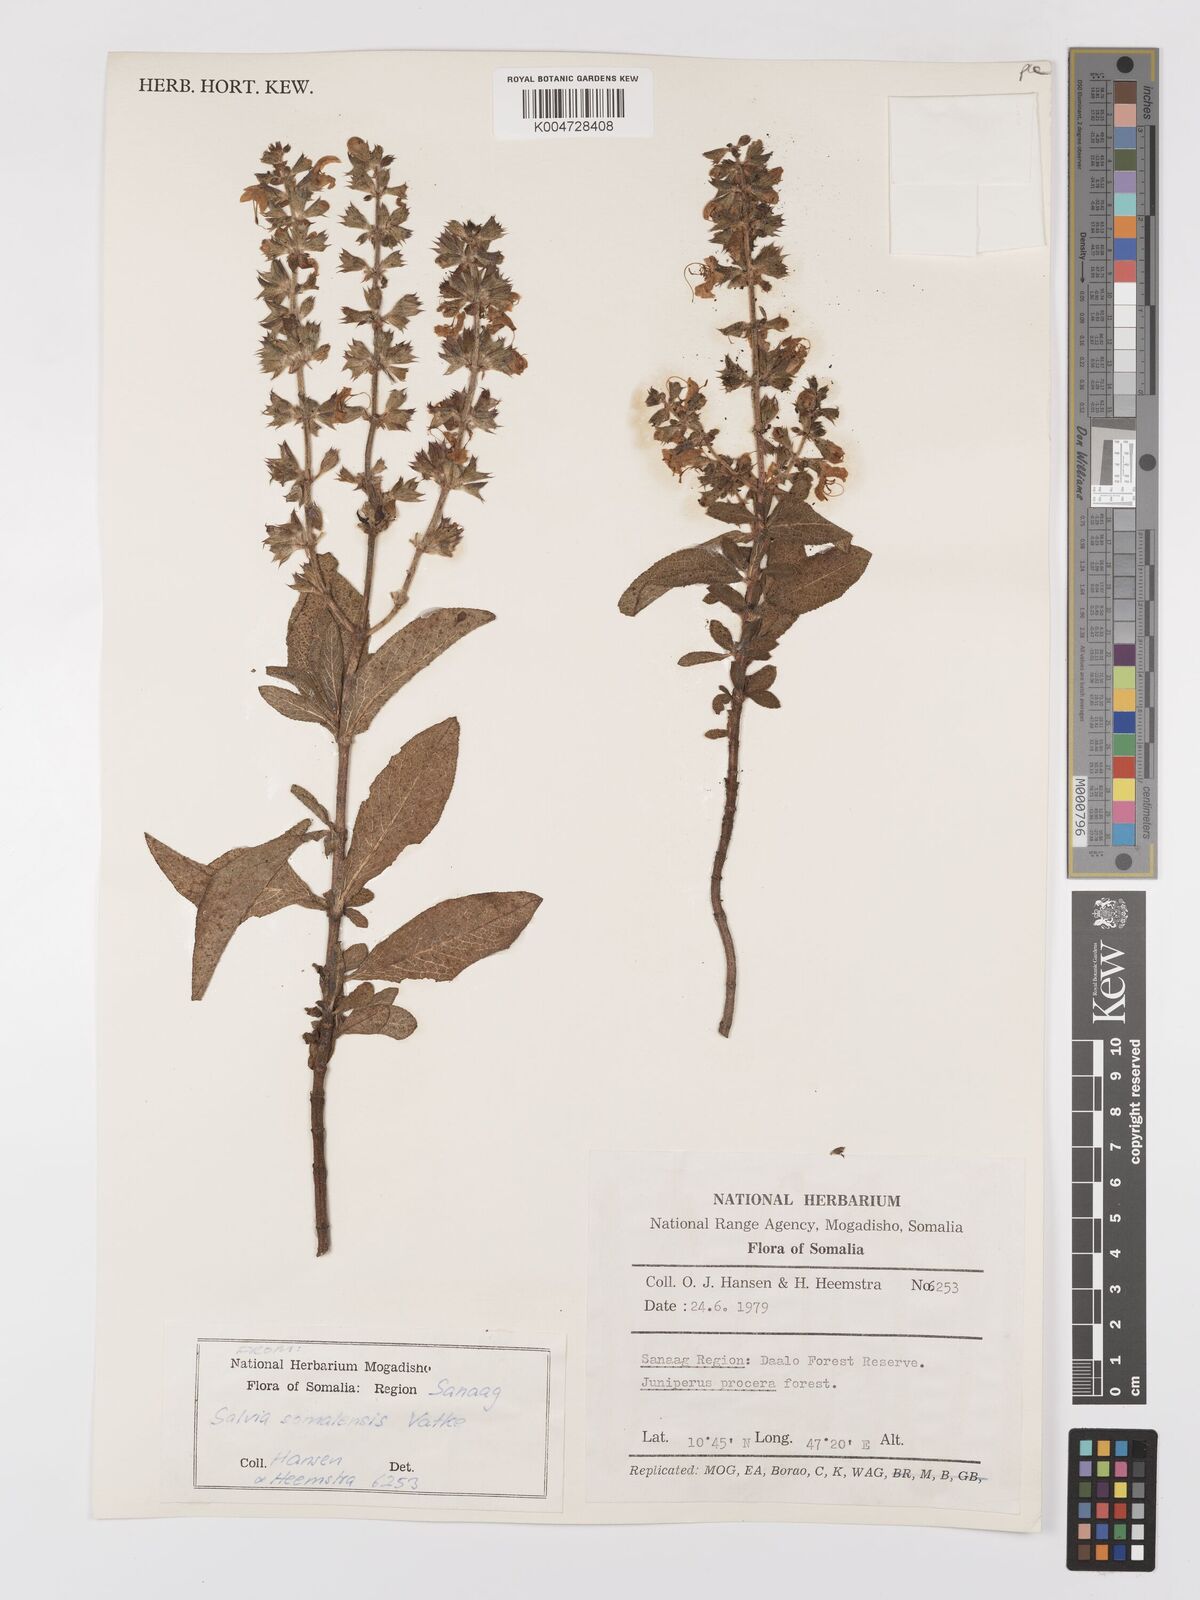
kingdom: Plantae
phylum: Tracheophyta
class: Magnoliopsida
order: Lamiales
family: Lamiaceae
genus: Salvia
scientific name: Salvia somalensis
